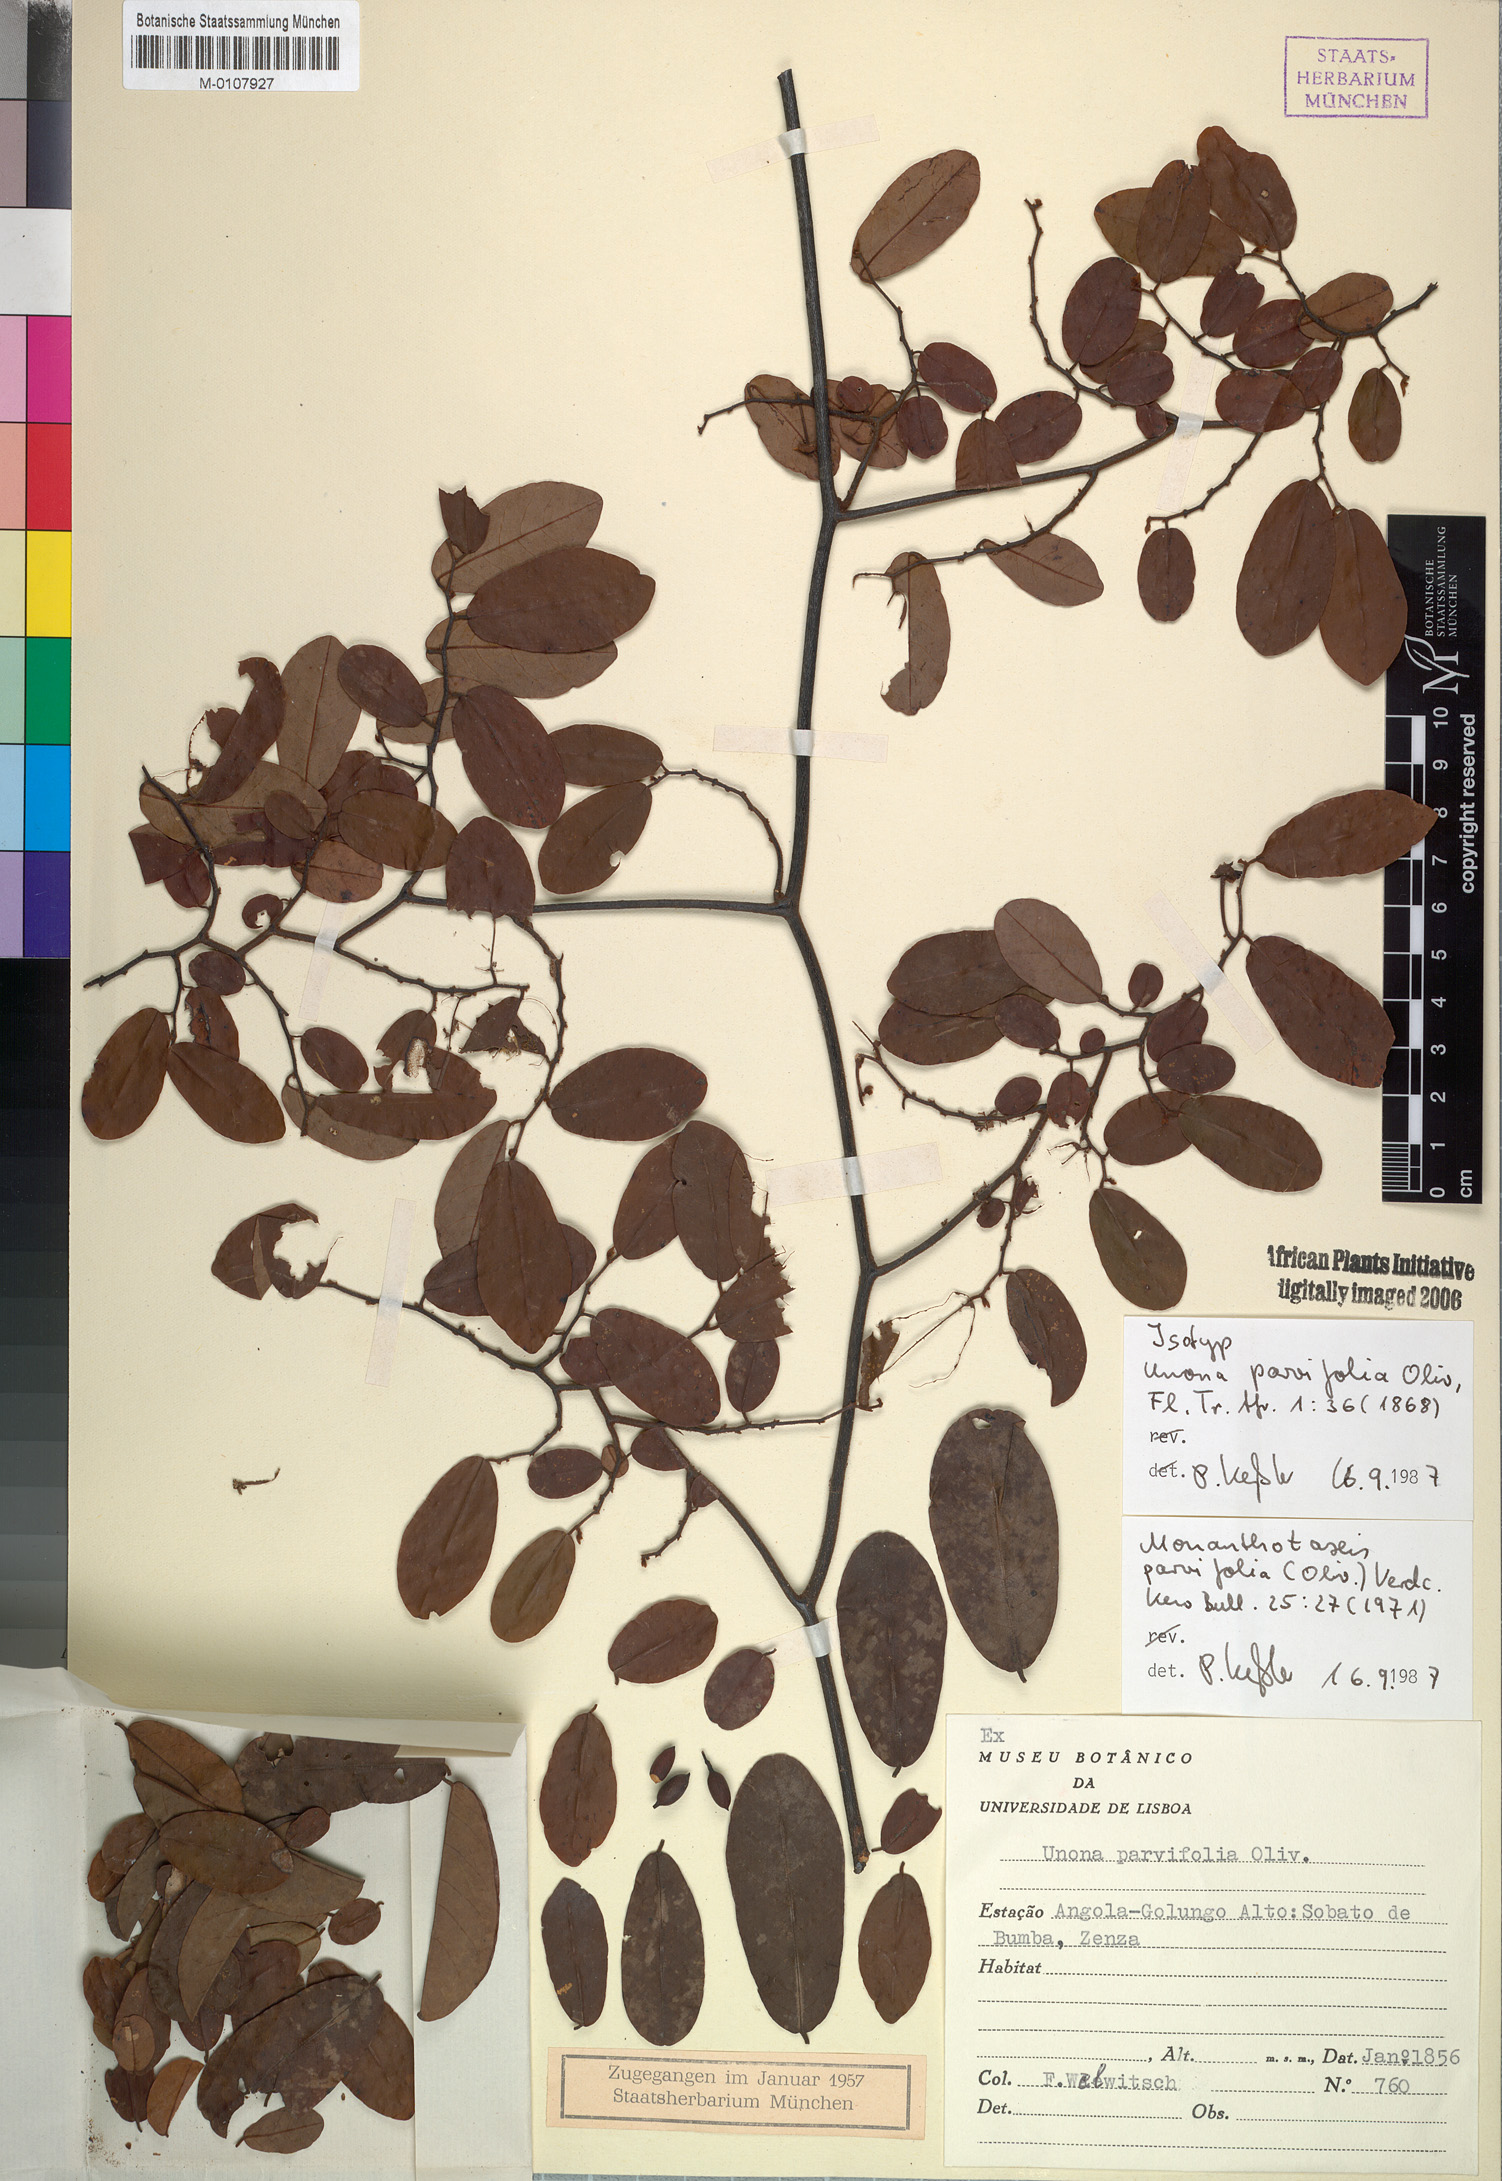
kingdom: Plantae
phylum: Tracheophyta
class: Magnoliopsida
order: Magnoliales
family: Annonaceae
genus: Monanthotaxis
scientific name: Monanthotaxis parvifolia
